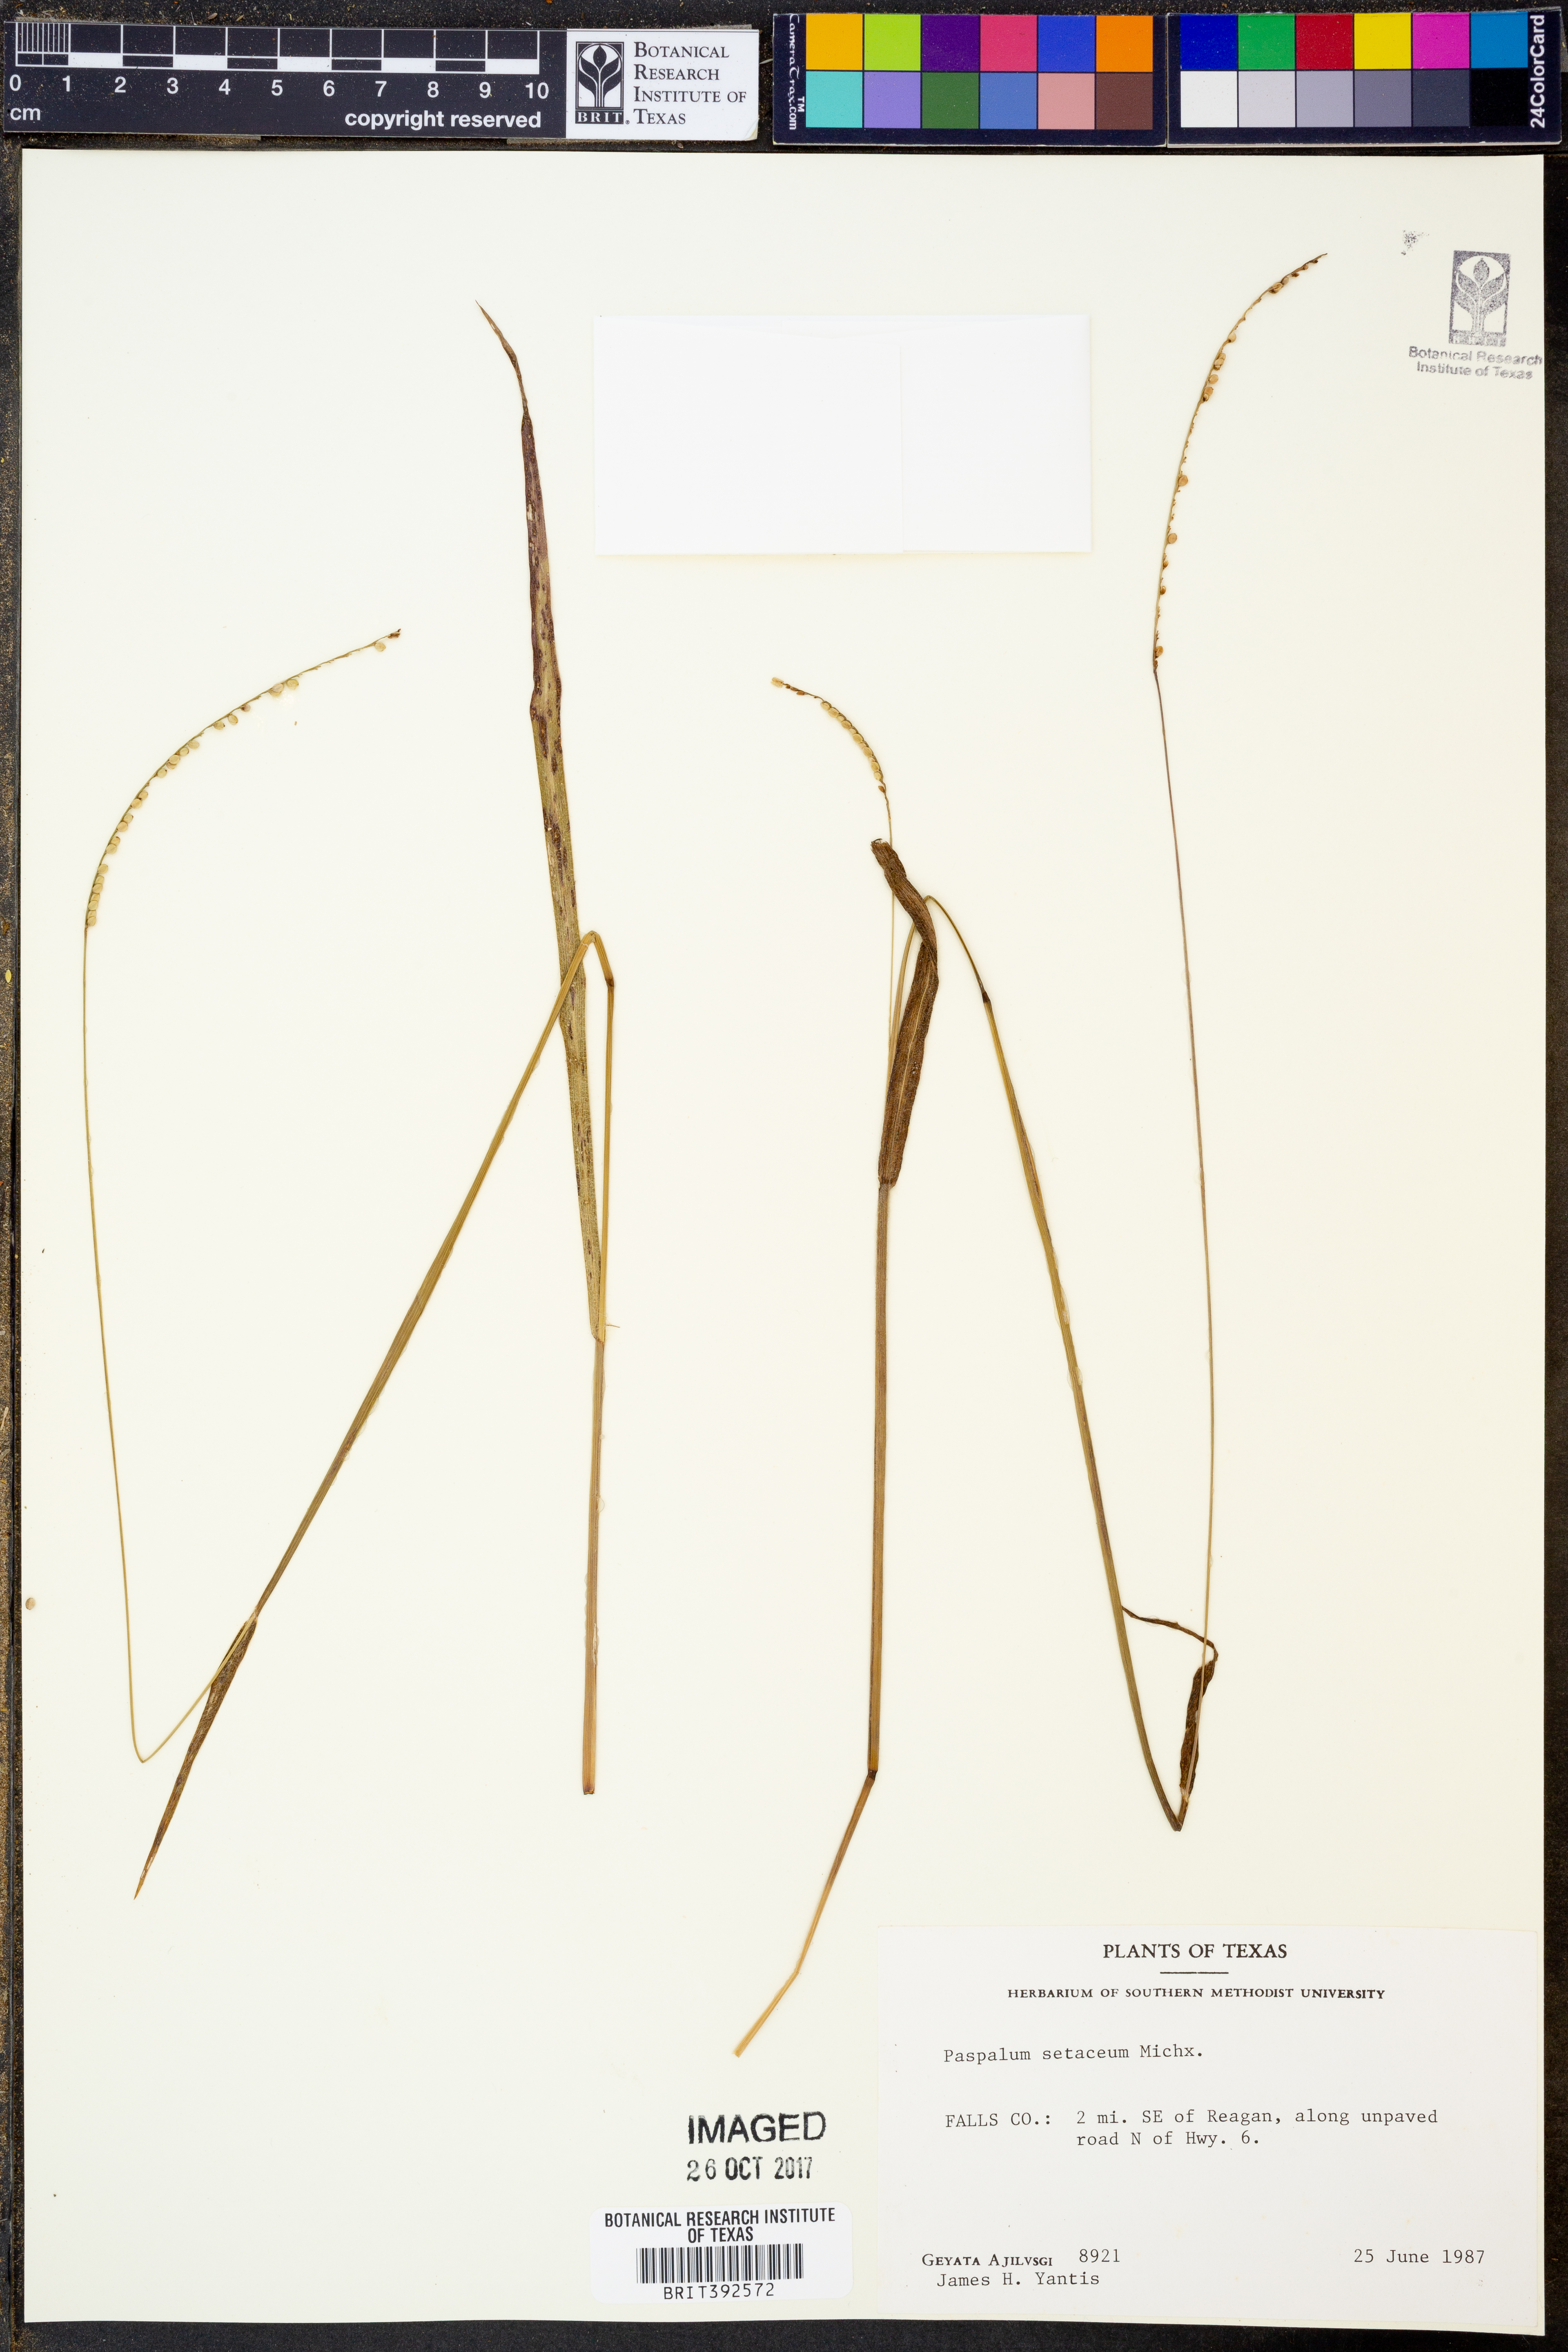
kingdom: Plantae
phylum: Tracheophyta
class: Liliopsida
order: Poales
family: Poaceae
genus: Paspalum
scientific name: Paspalum setaceum
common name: Slender paspalum
